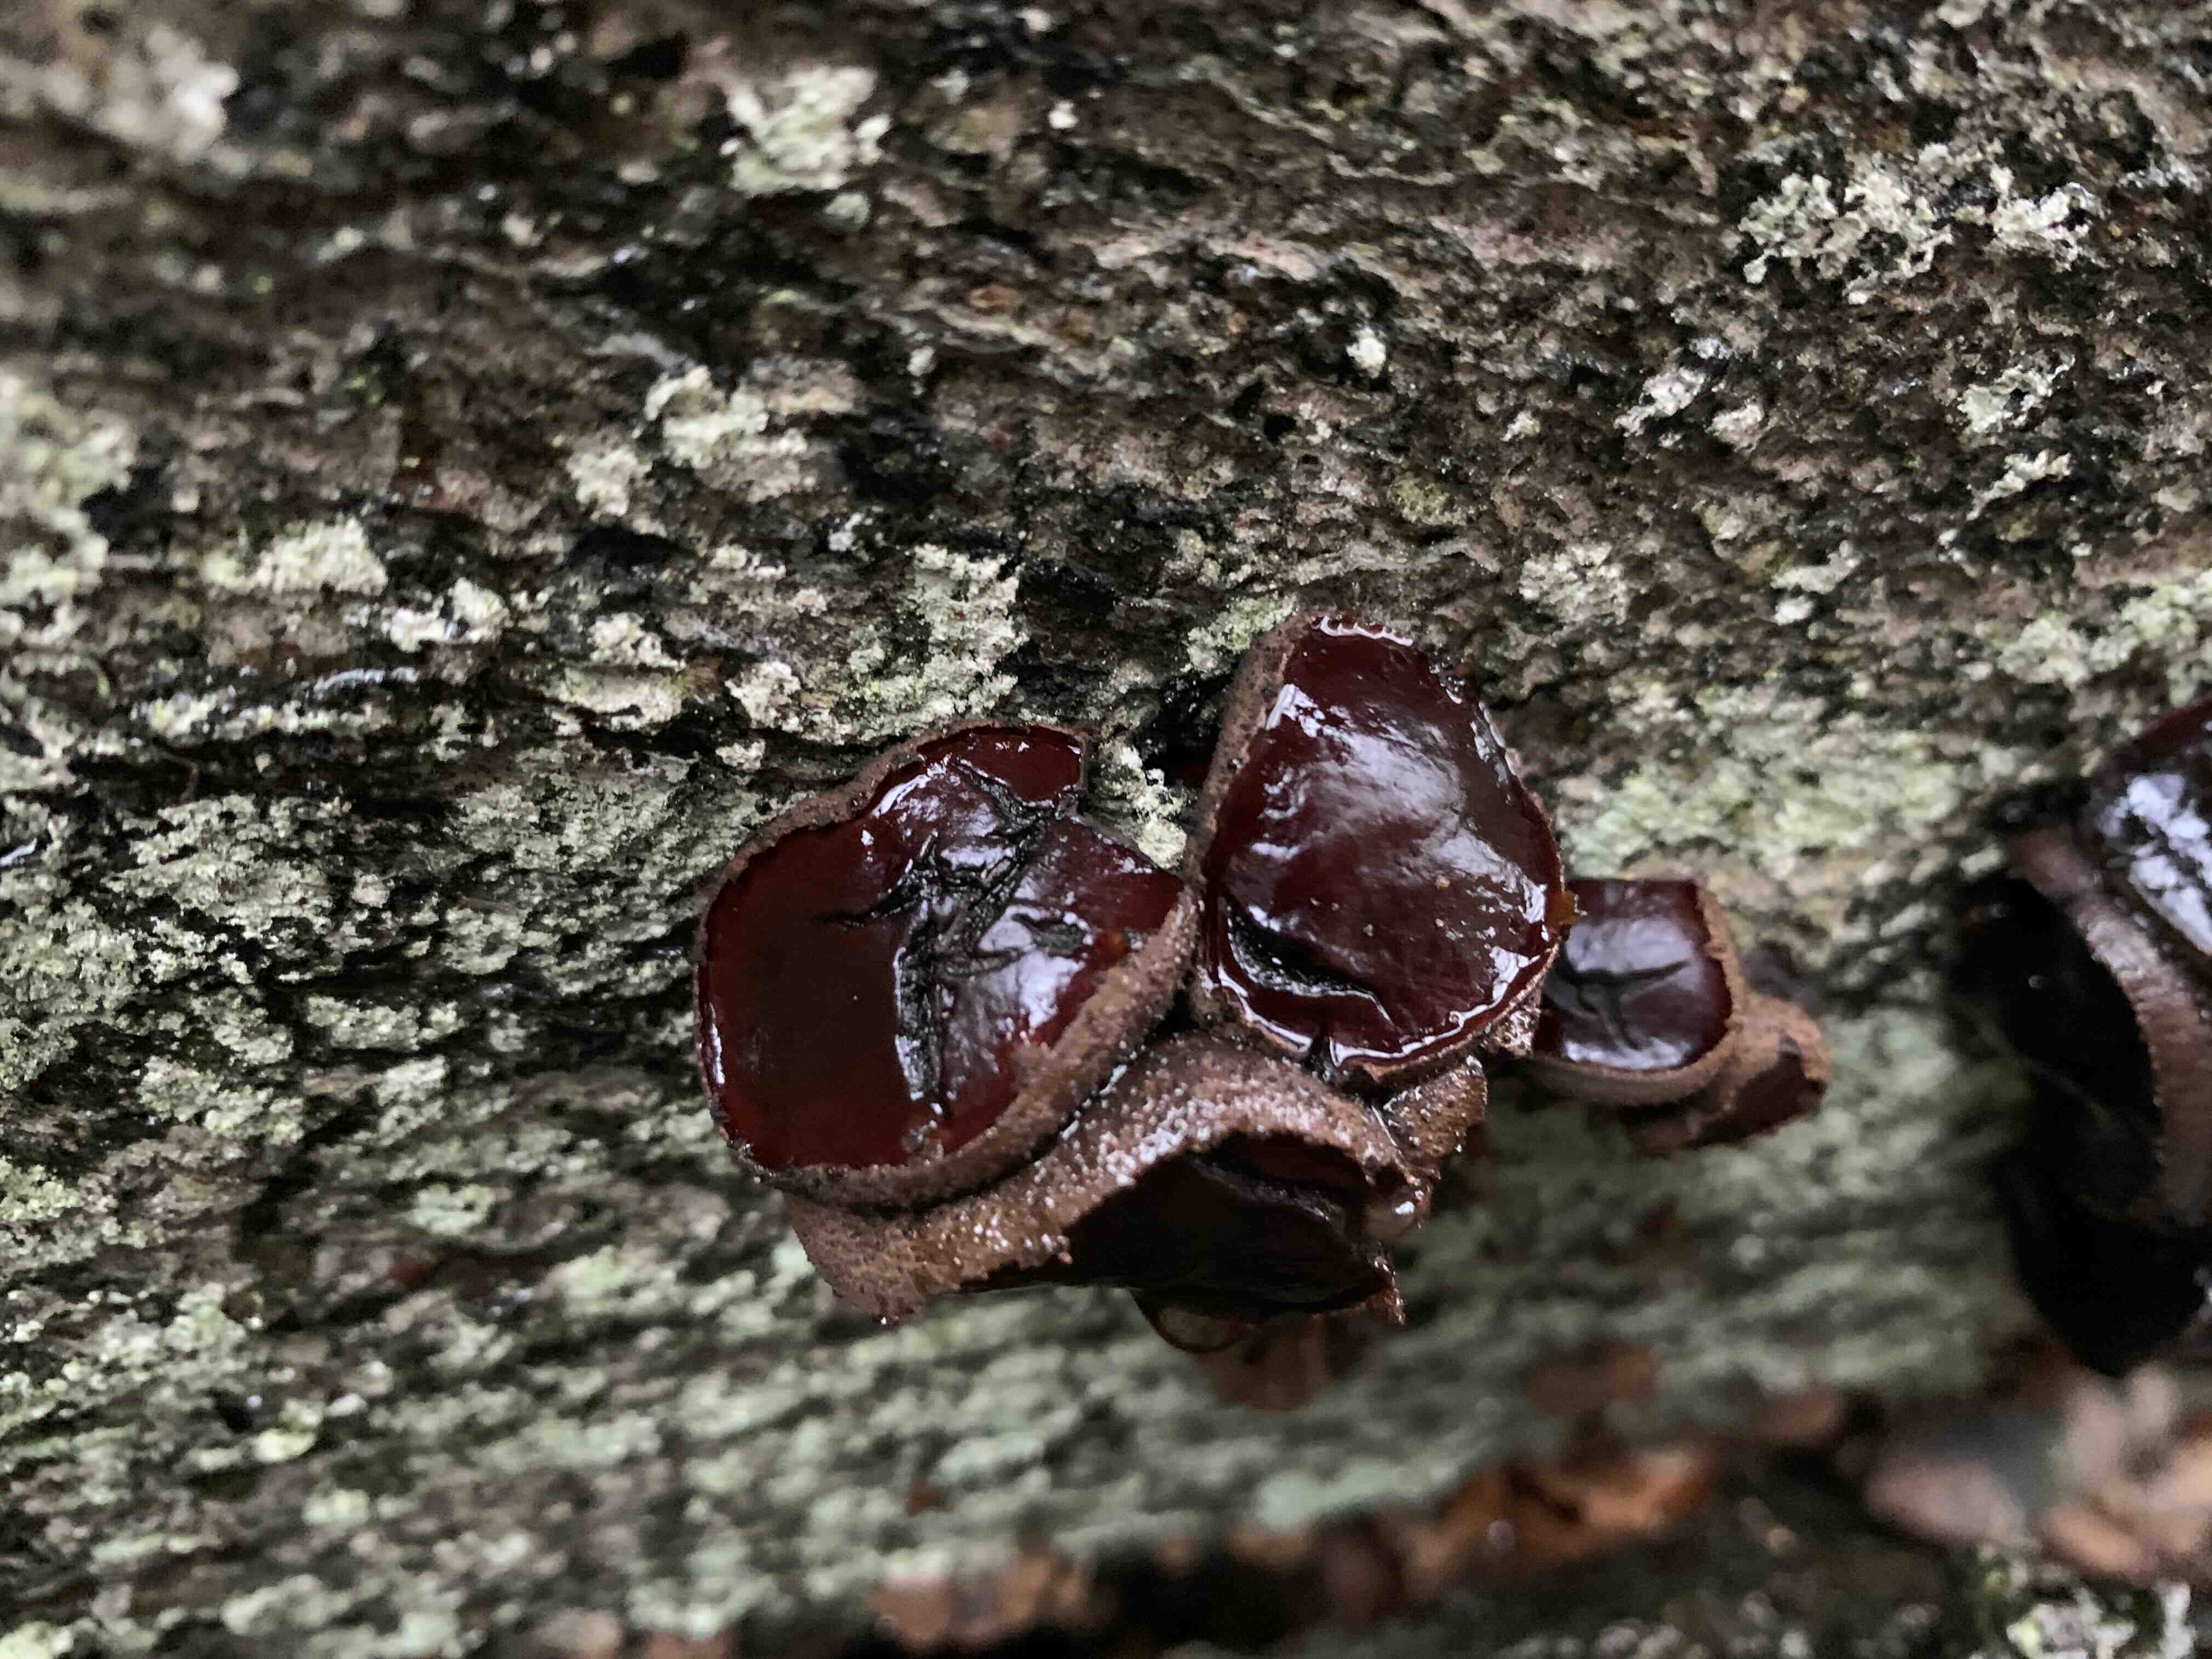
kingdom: Fungi
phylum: Ascomycota
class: Leotiomycetes
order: Phacidiales
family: Phacidiaceae
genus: Bulgaria
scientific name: Bulgaria inquinans
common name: afsmittende topsvamp
